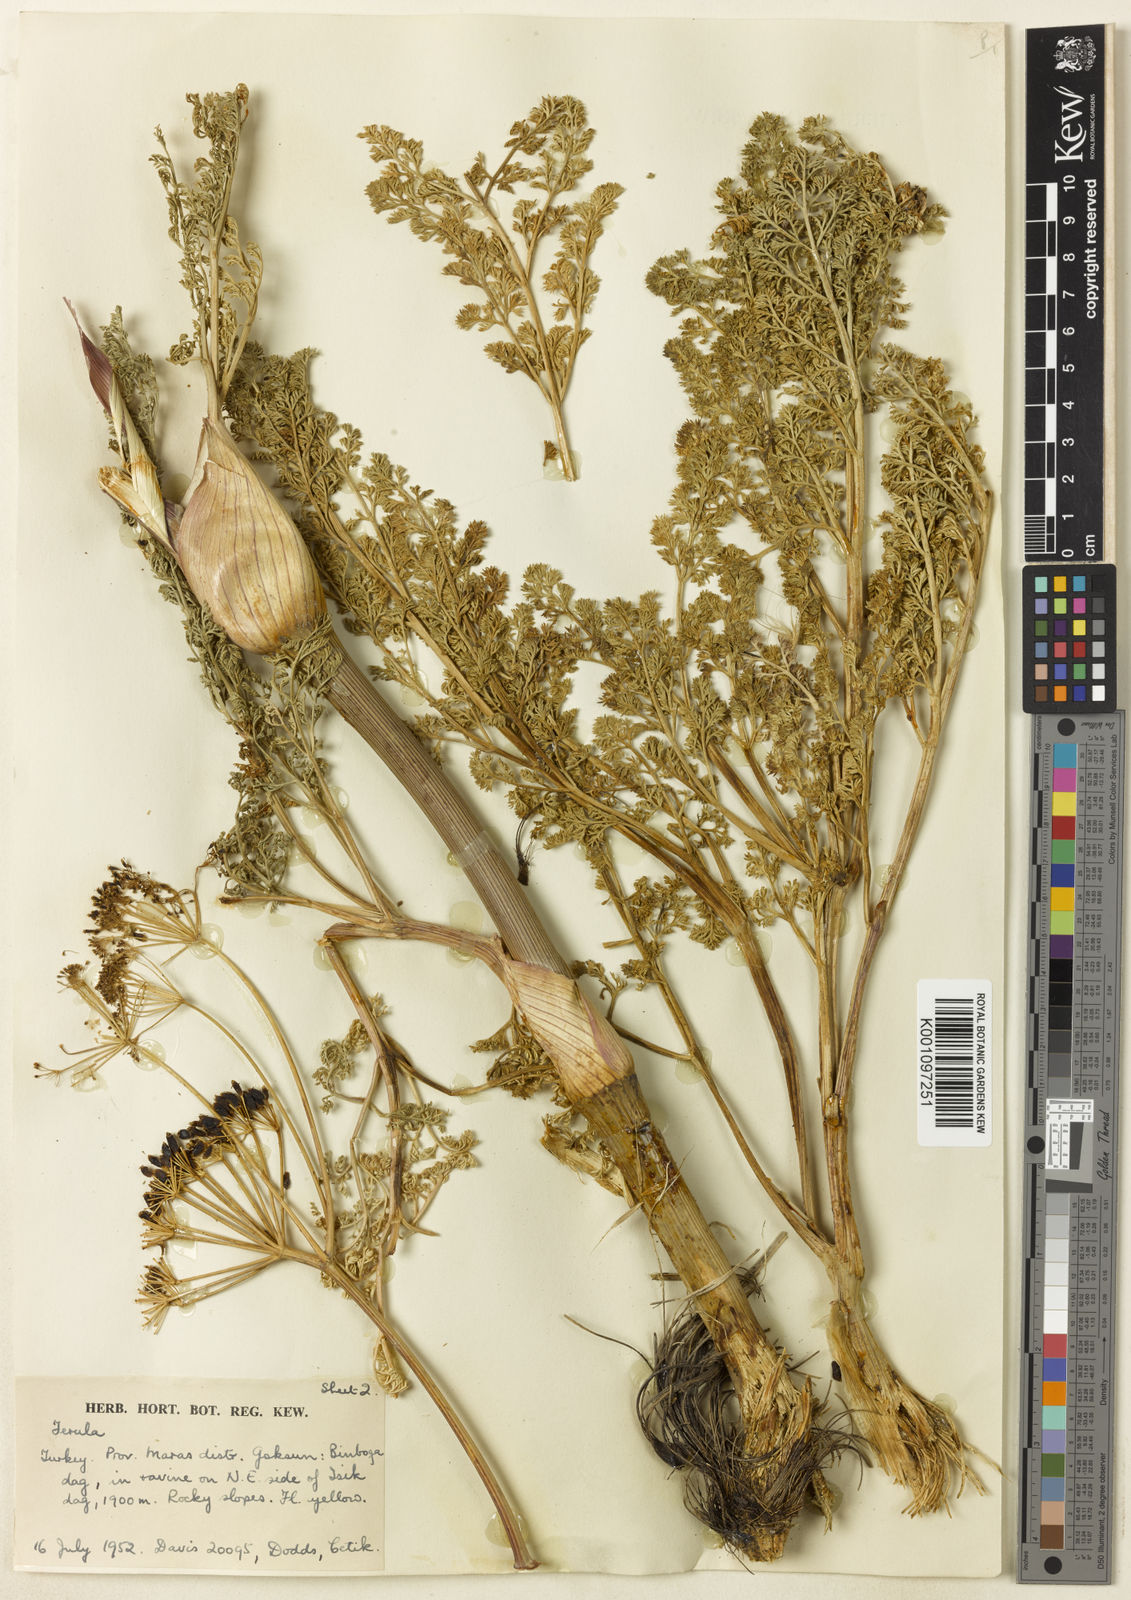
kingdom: Plantae
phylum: Tracheophyta
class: Magnoliopsida
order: Apiales
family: Apiaceae
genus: Ferula
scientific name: Ferula elaeochytris
